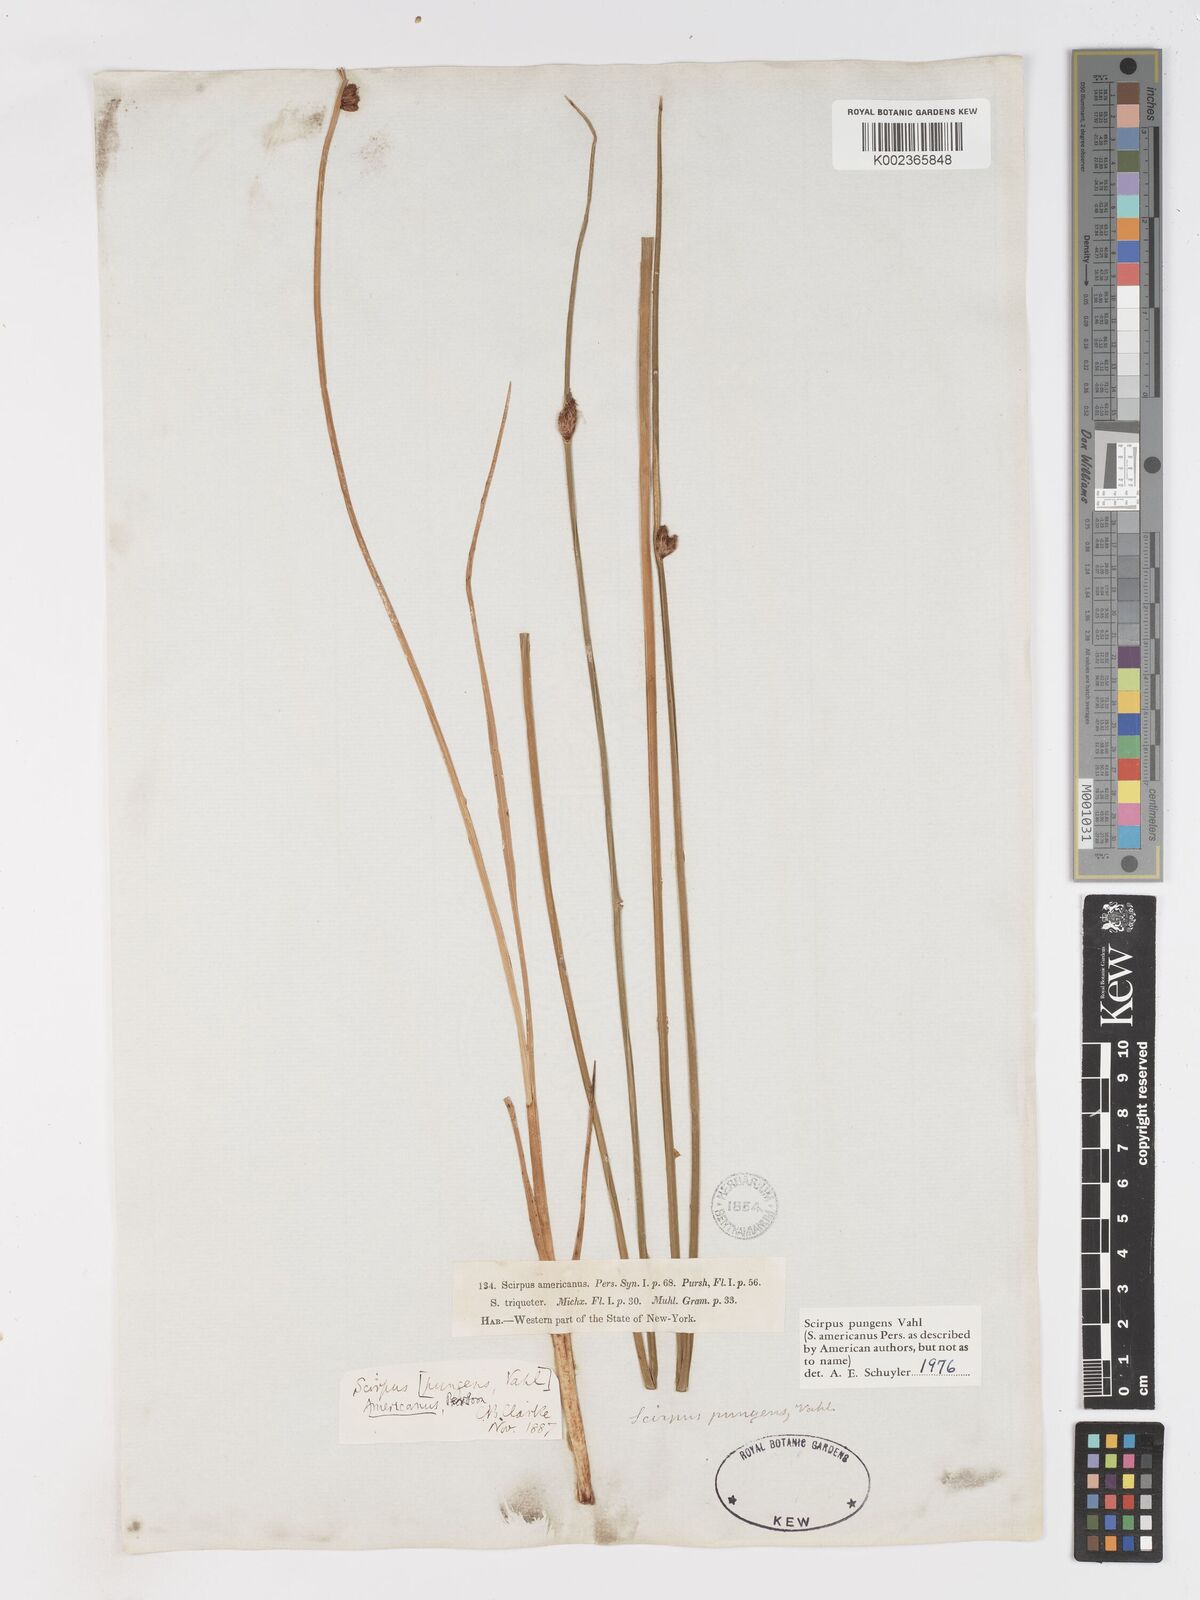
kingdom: Plantae
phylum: Tracheophyta
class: Liliopsida
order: Poales
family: Cyperaceae
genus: Schoenoplectus
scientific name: Schoenoplectus pungens
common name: Sharp club-rush
